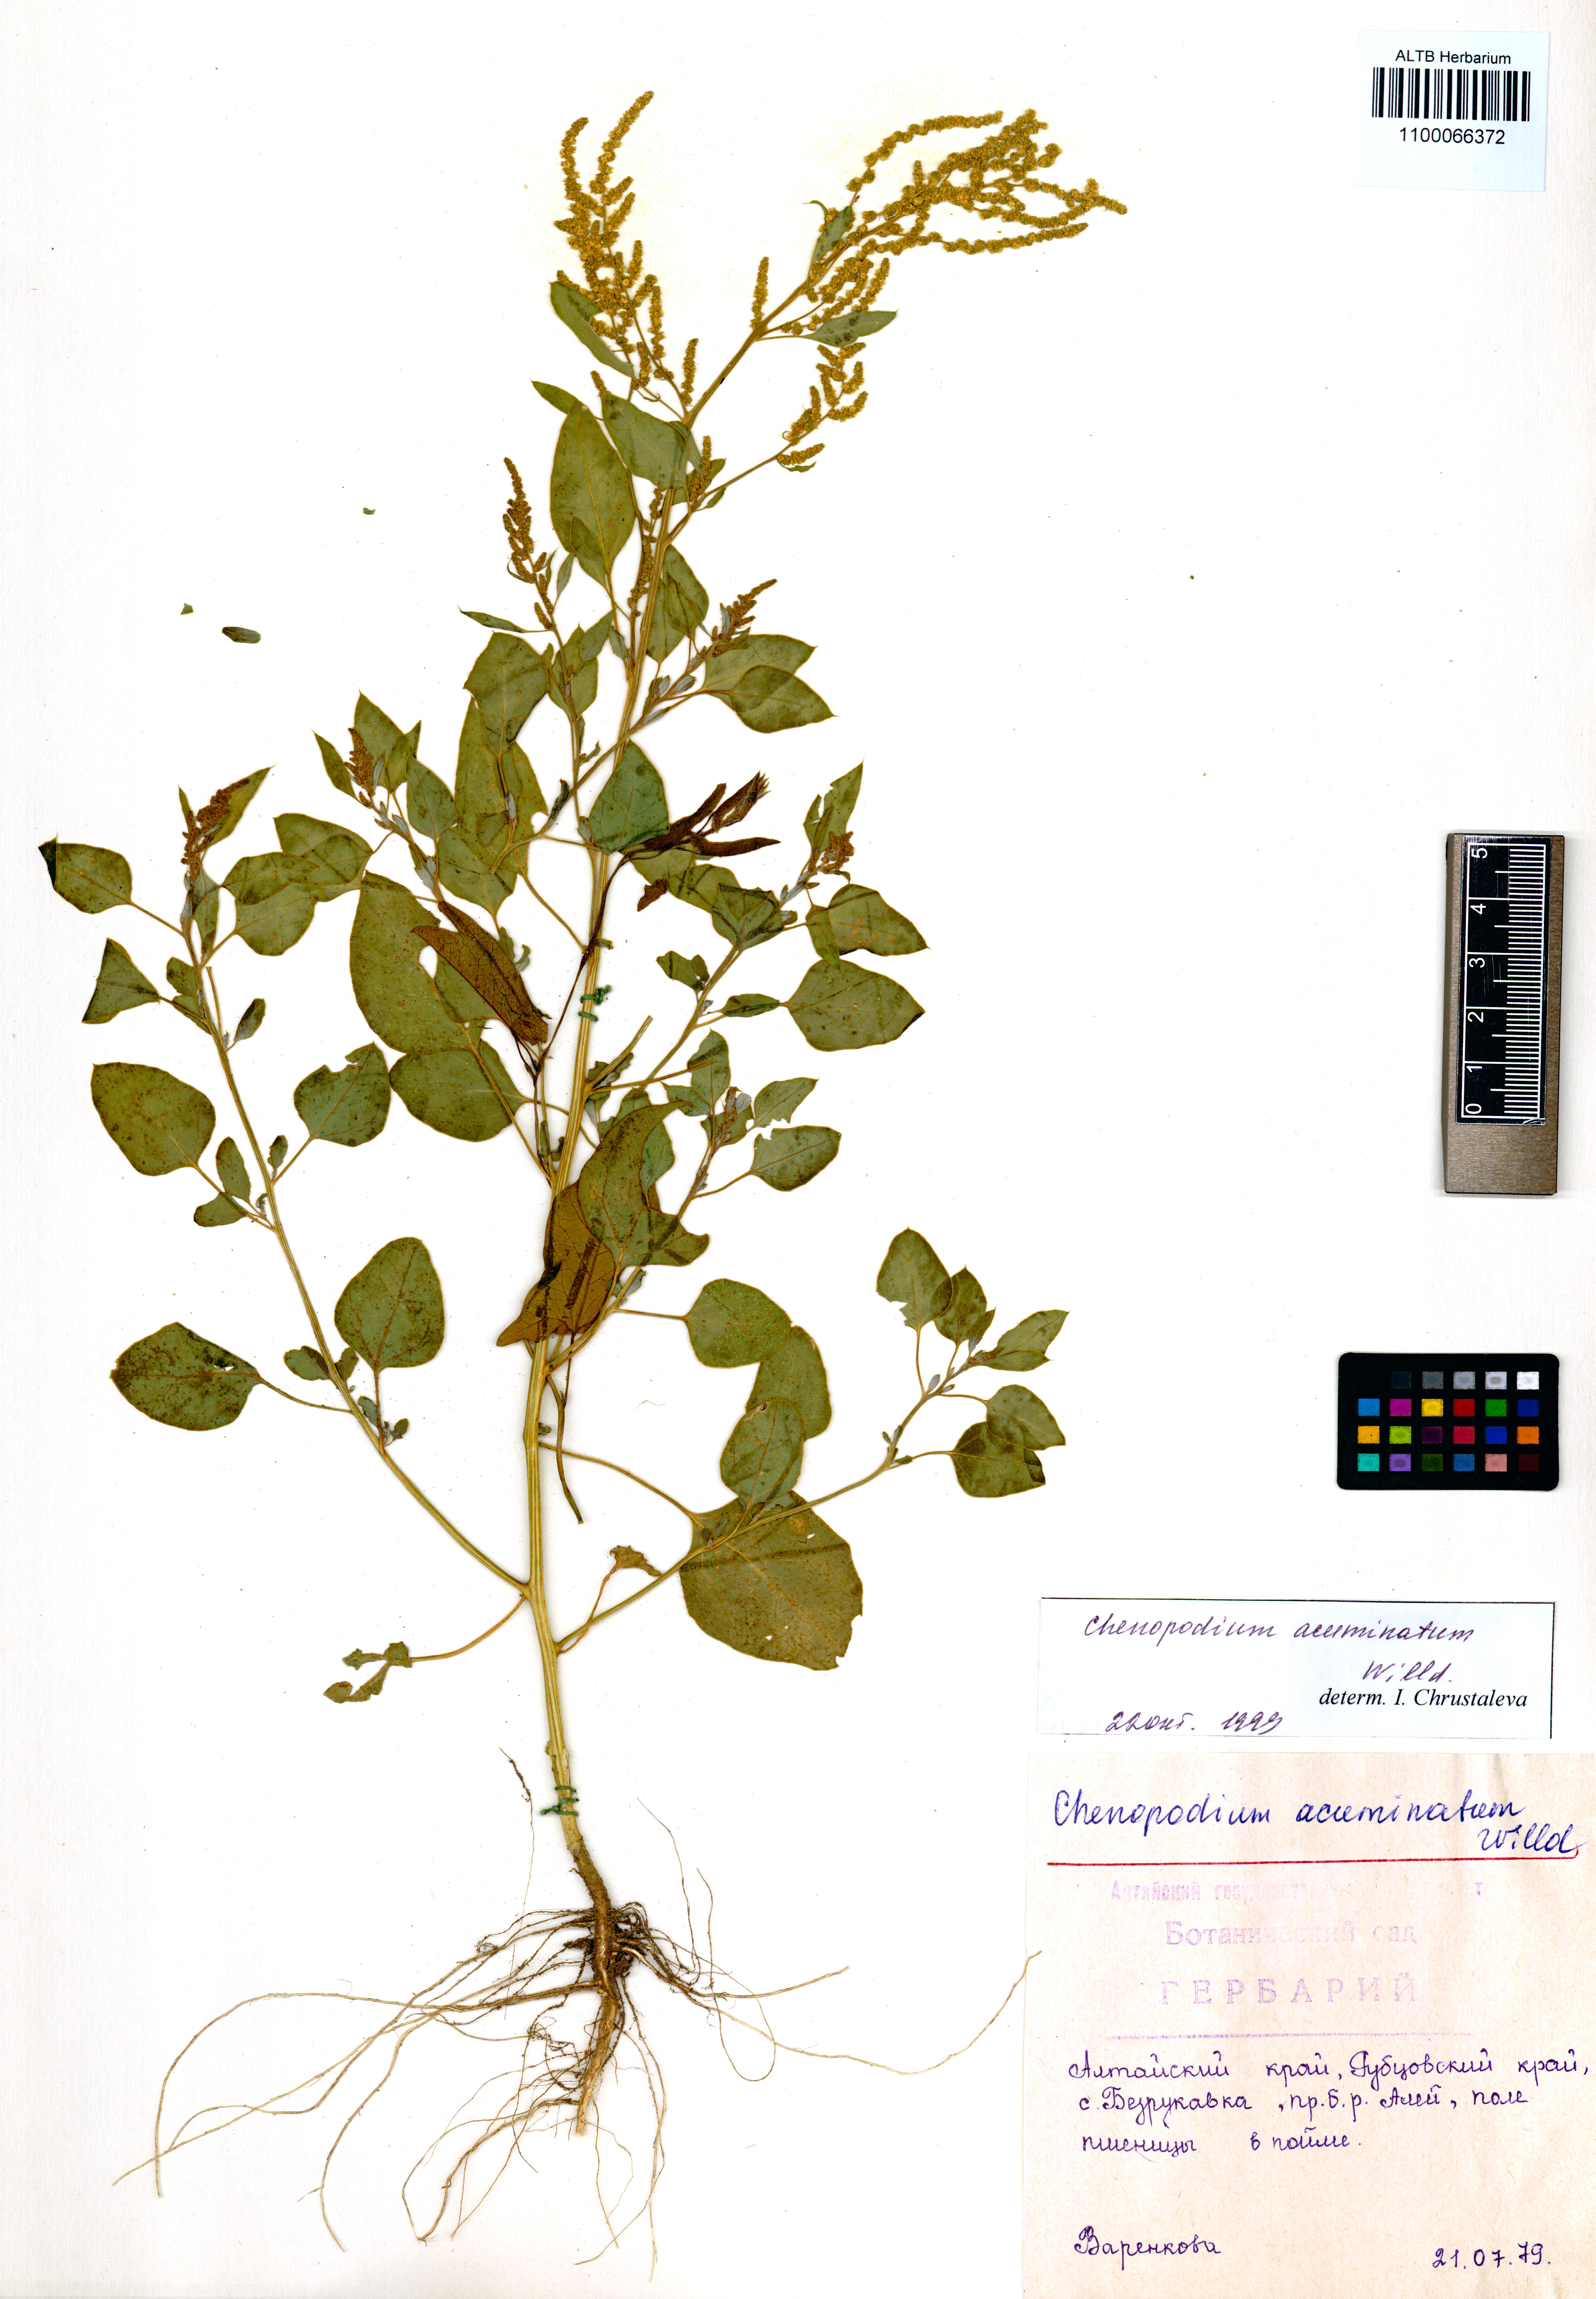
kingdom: Plantae
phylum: Tracheophyta
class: Magnoliopsida
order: Caryophyllales
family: Amaranthaceae
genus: Chenopodium
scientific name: Chenopodium acuminatum
